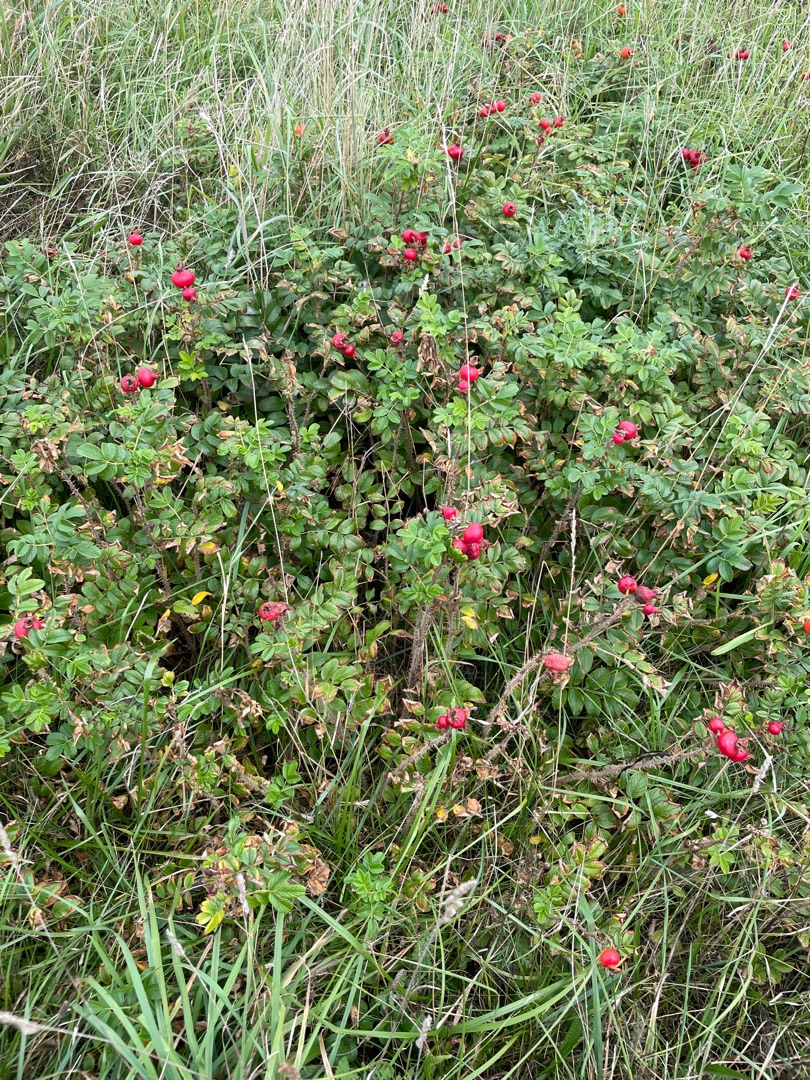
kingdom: Plantae
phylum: Tracheophyta
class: Magnoliopsida
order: Rosales
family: Rosaceae
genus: Rosa
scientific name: Rosa rugosa
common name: Rynket rose
